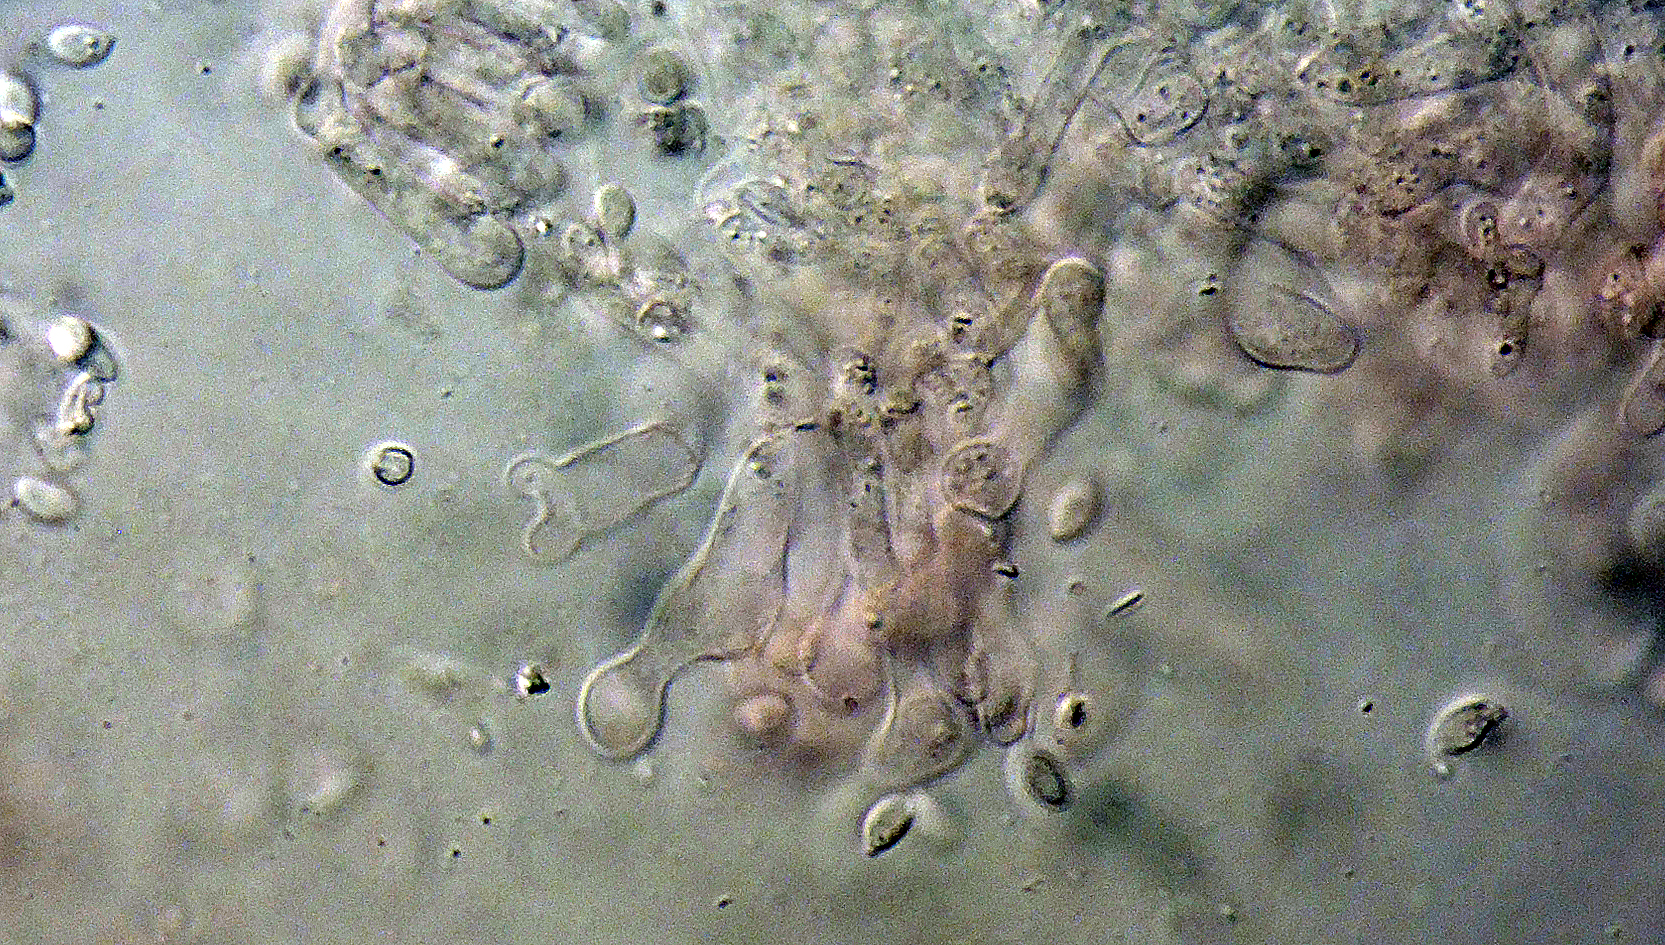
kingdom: Fungi
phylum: Basidiomycota
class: Agaricomycetes
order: Agaricales
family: Omphalotaceae
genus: Gymnopus
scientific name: Gymnopus ocior
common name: mørk fladhat
